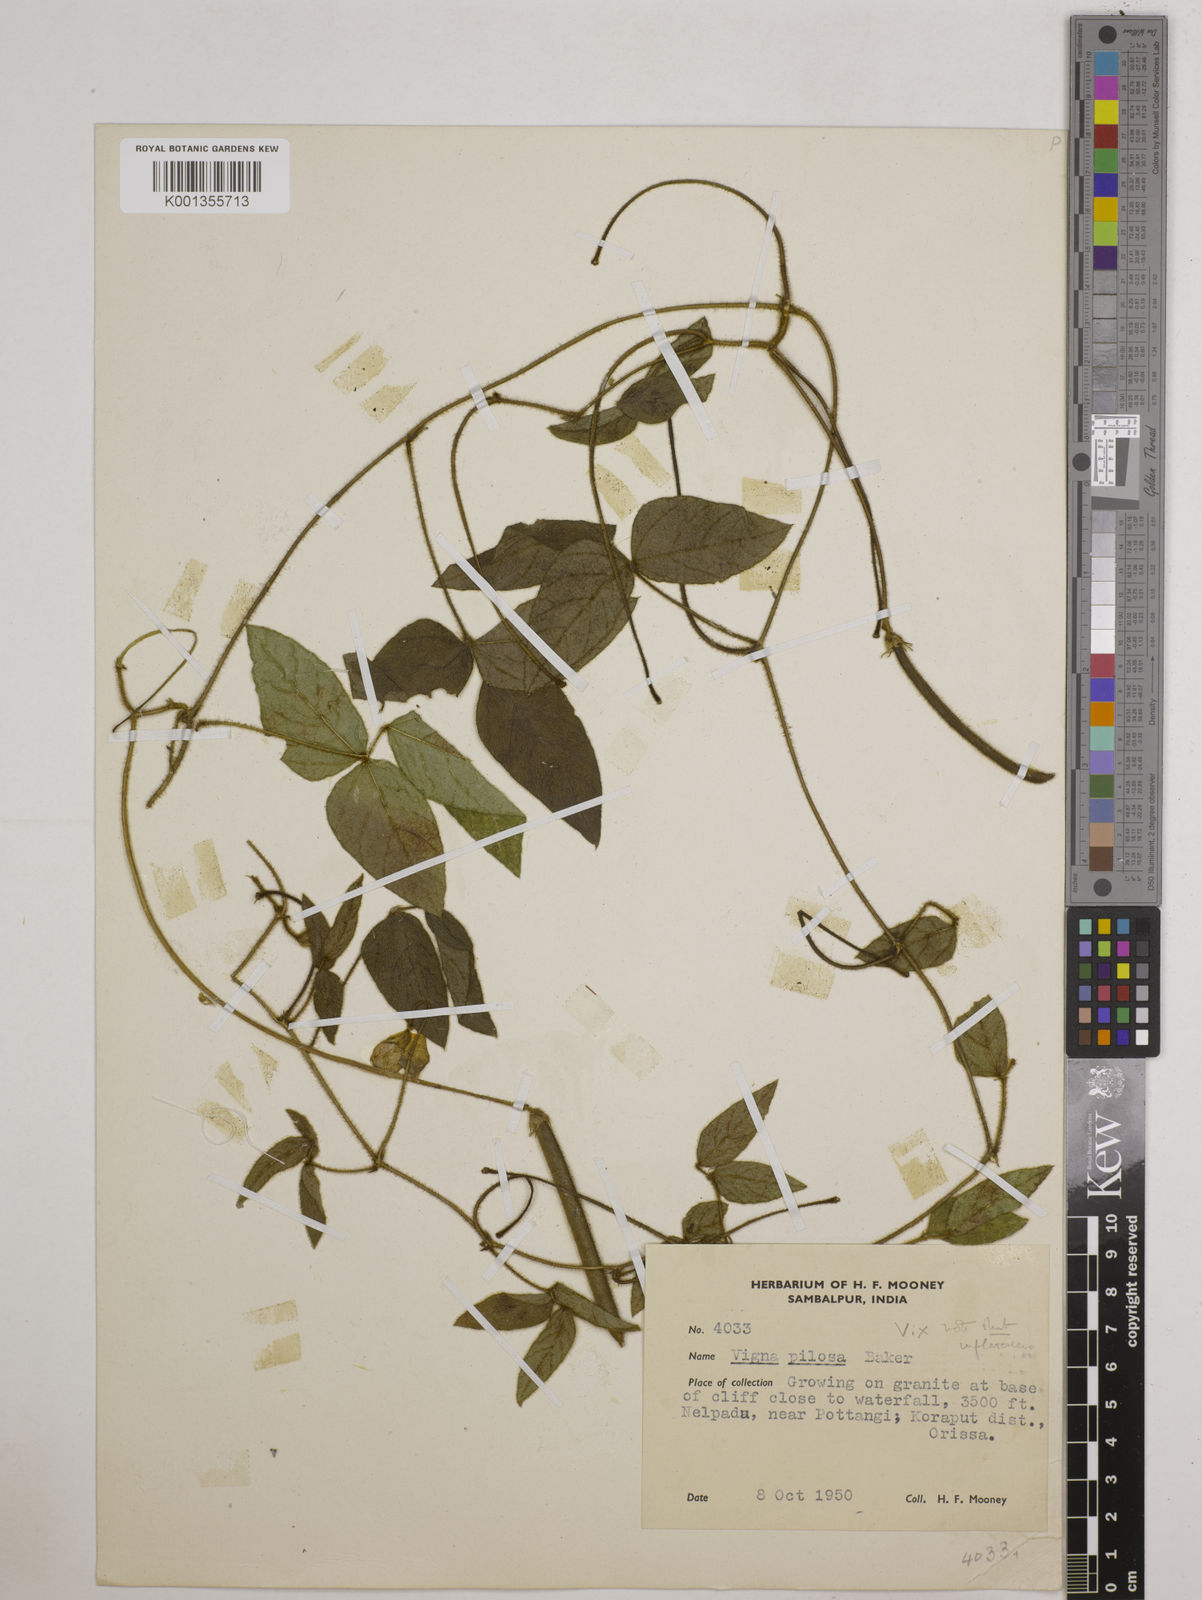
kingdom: Plantae
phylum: Tracheophyta
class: Magnoliopsida
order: Fabales
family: Fabaceae
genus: Vigna
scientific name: Vigna vexillata
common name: Zombi pea
